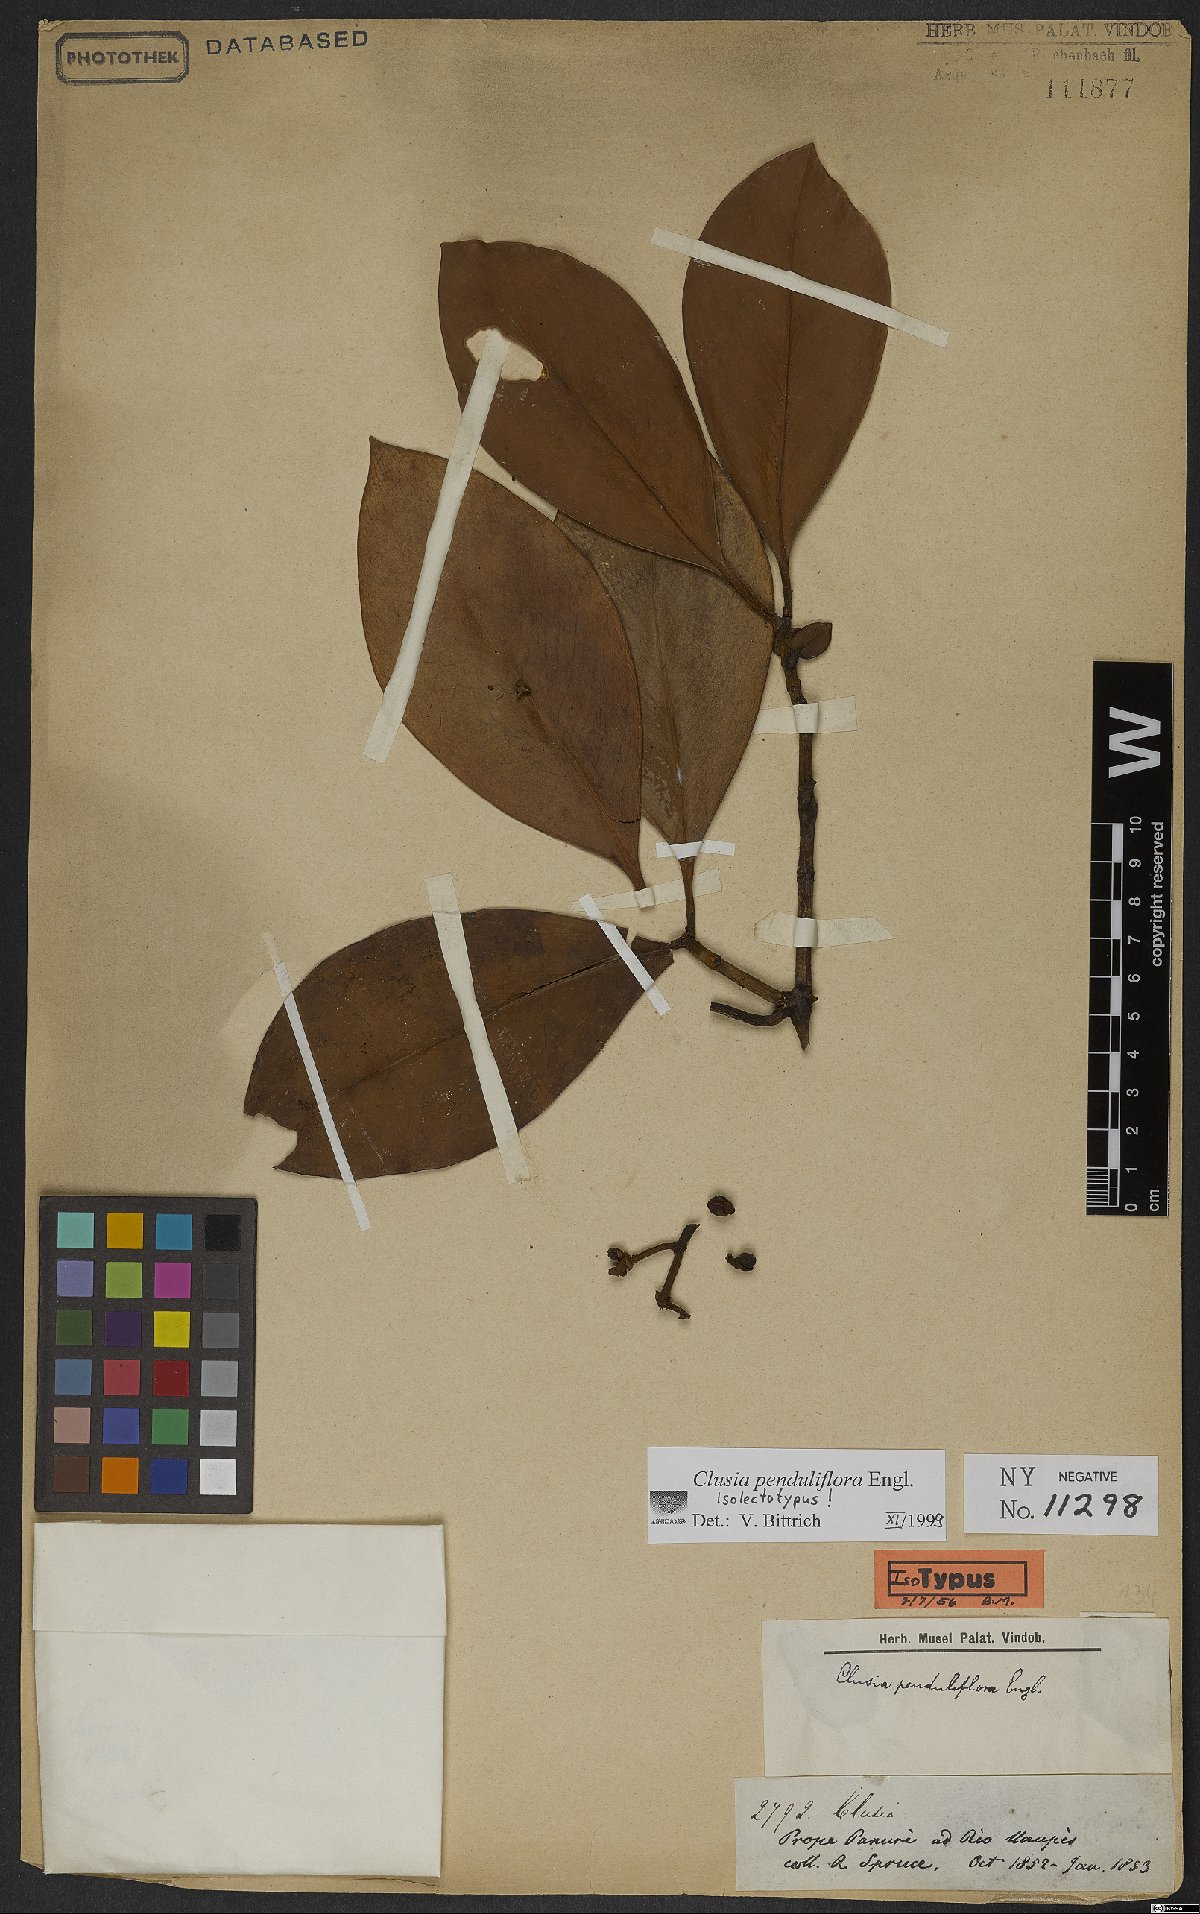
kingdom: Plantae
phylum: Tracheophyta
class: Magnoliopsida
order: Malpighiales
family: Clusiaceae
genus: Clusia
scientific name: Clusia penduliflora
